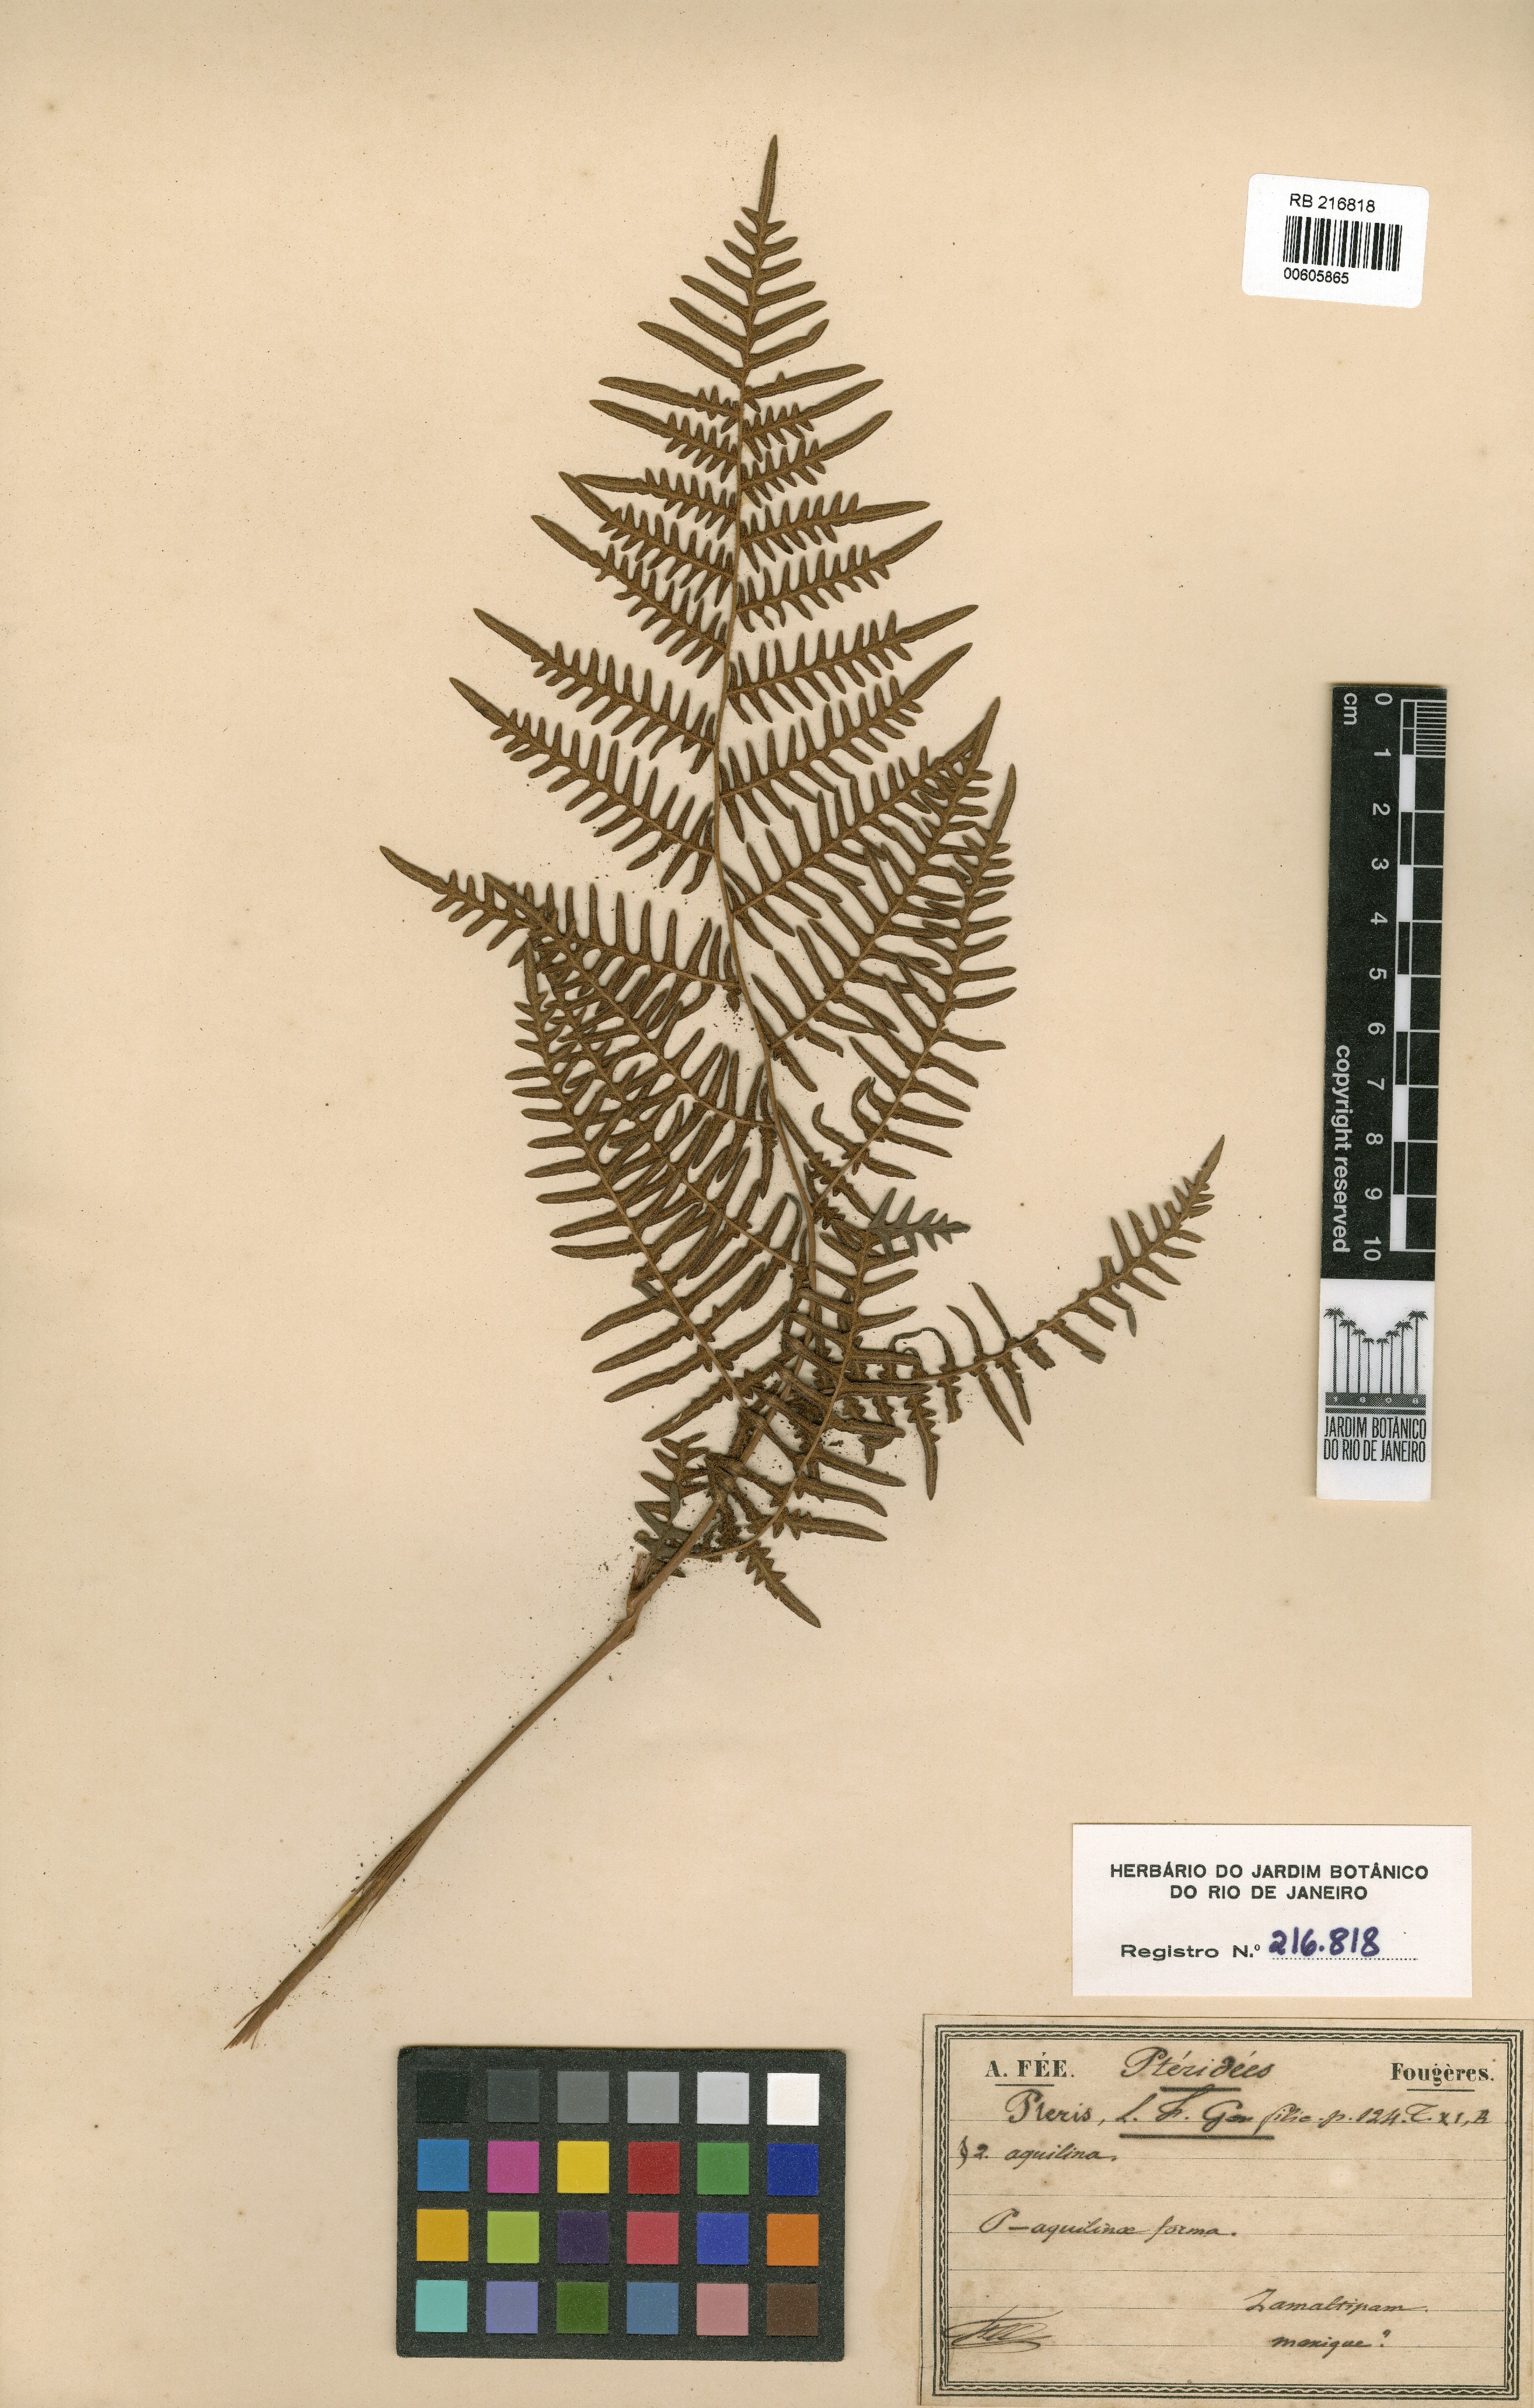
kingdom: Plantae
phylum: Tracheophyta
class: Polypodiopsida
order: Polypodiales
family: Dennstaedtiaceae
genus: Pteridium
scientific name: Pteridium aquilinum
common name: Bracken
